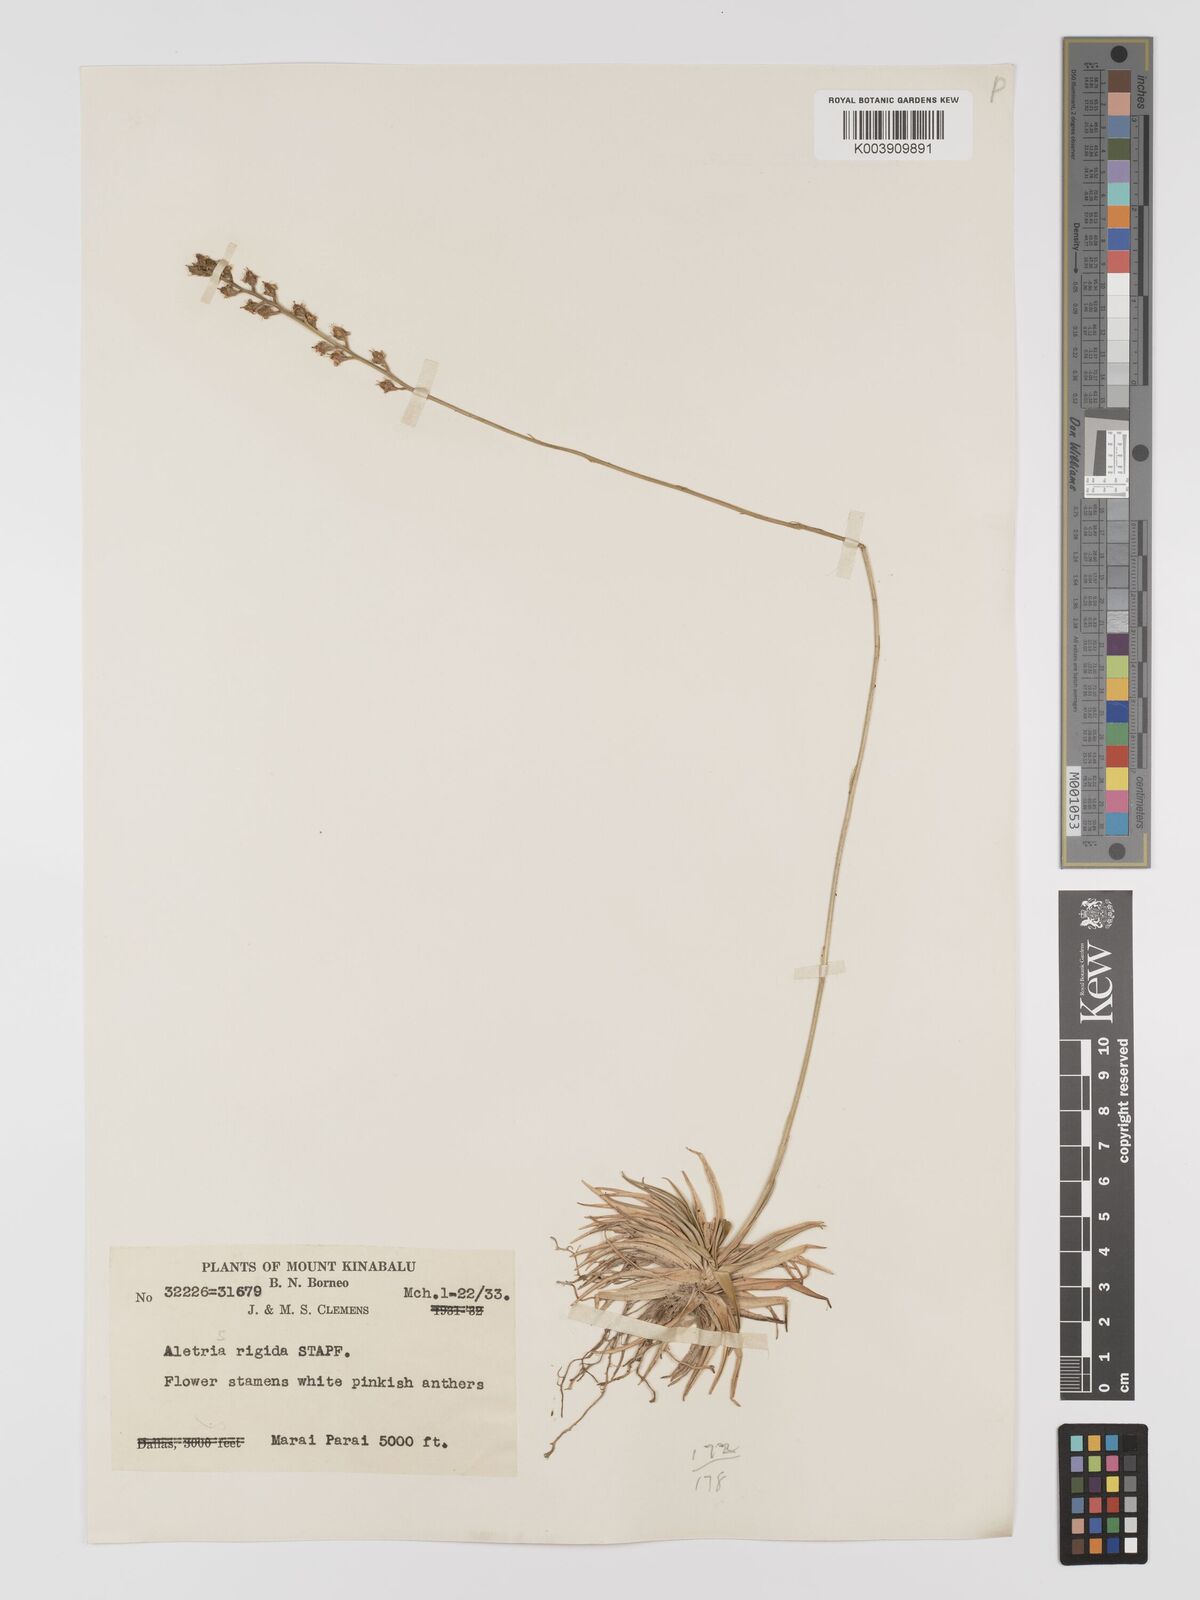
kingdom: Plantae
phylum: Tracheophyta
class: Liliopsida
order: Dioscoreales
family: Nartheciaceae
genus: Aletris
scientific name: Aletris foliolosa
